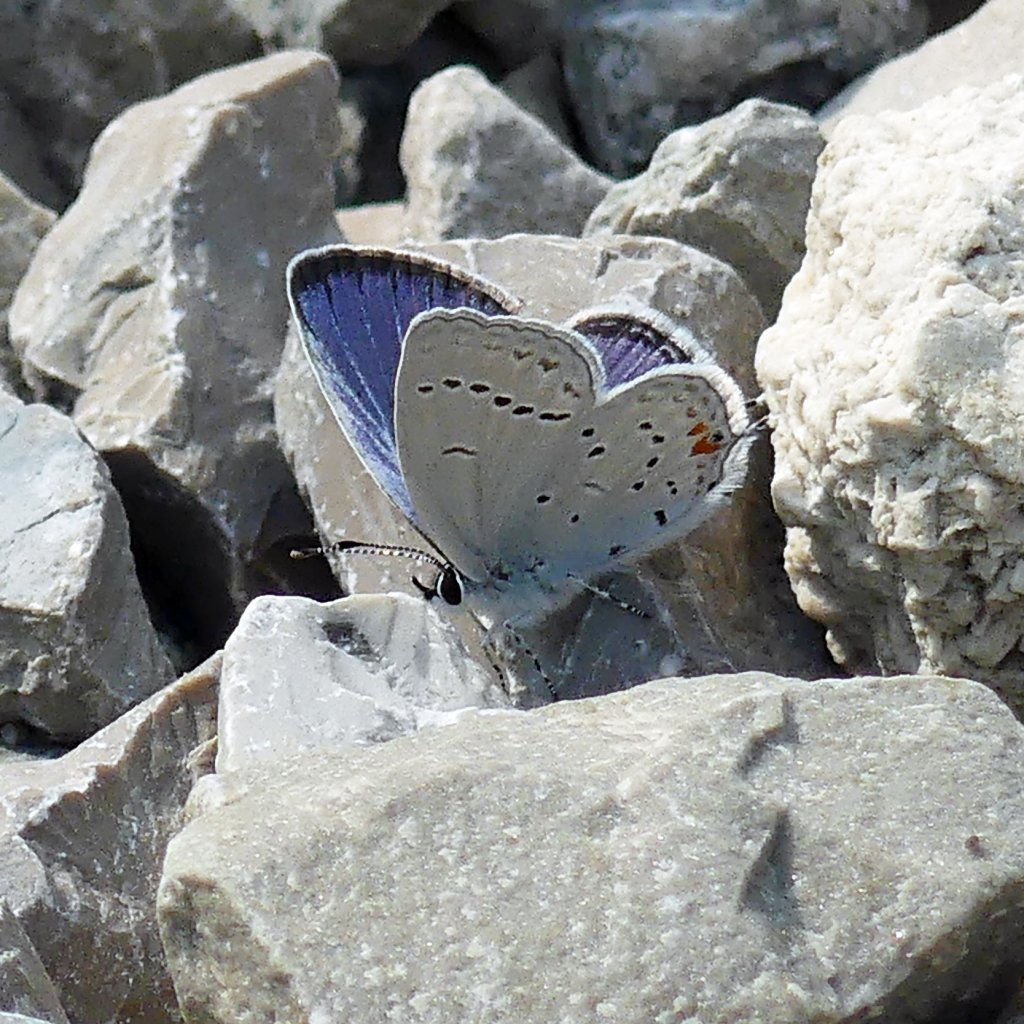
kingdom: Animalia
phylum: Arthropoda
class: Insecta
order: Lepidoptera
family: Lycaenidae
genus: Elkalyce
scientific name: Elkalyce comyntas
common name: Eastern Tailed-Blue
